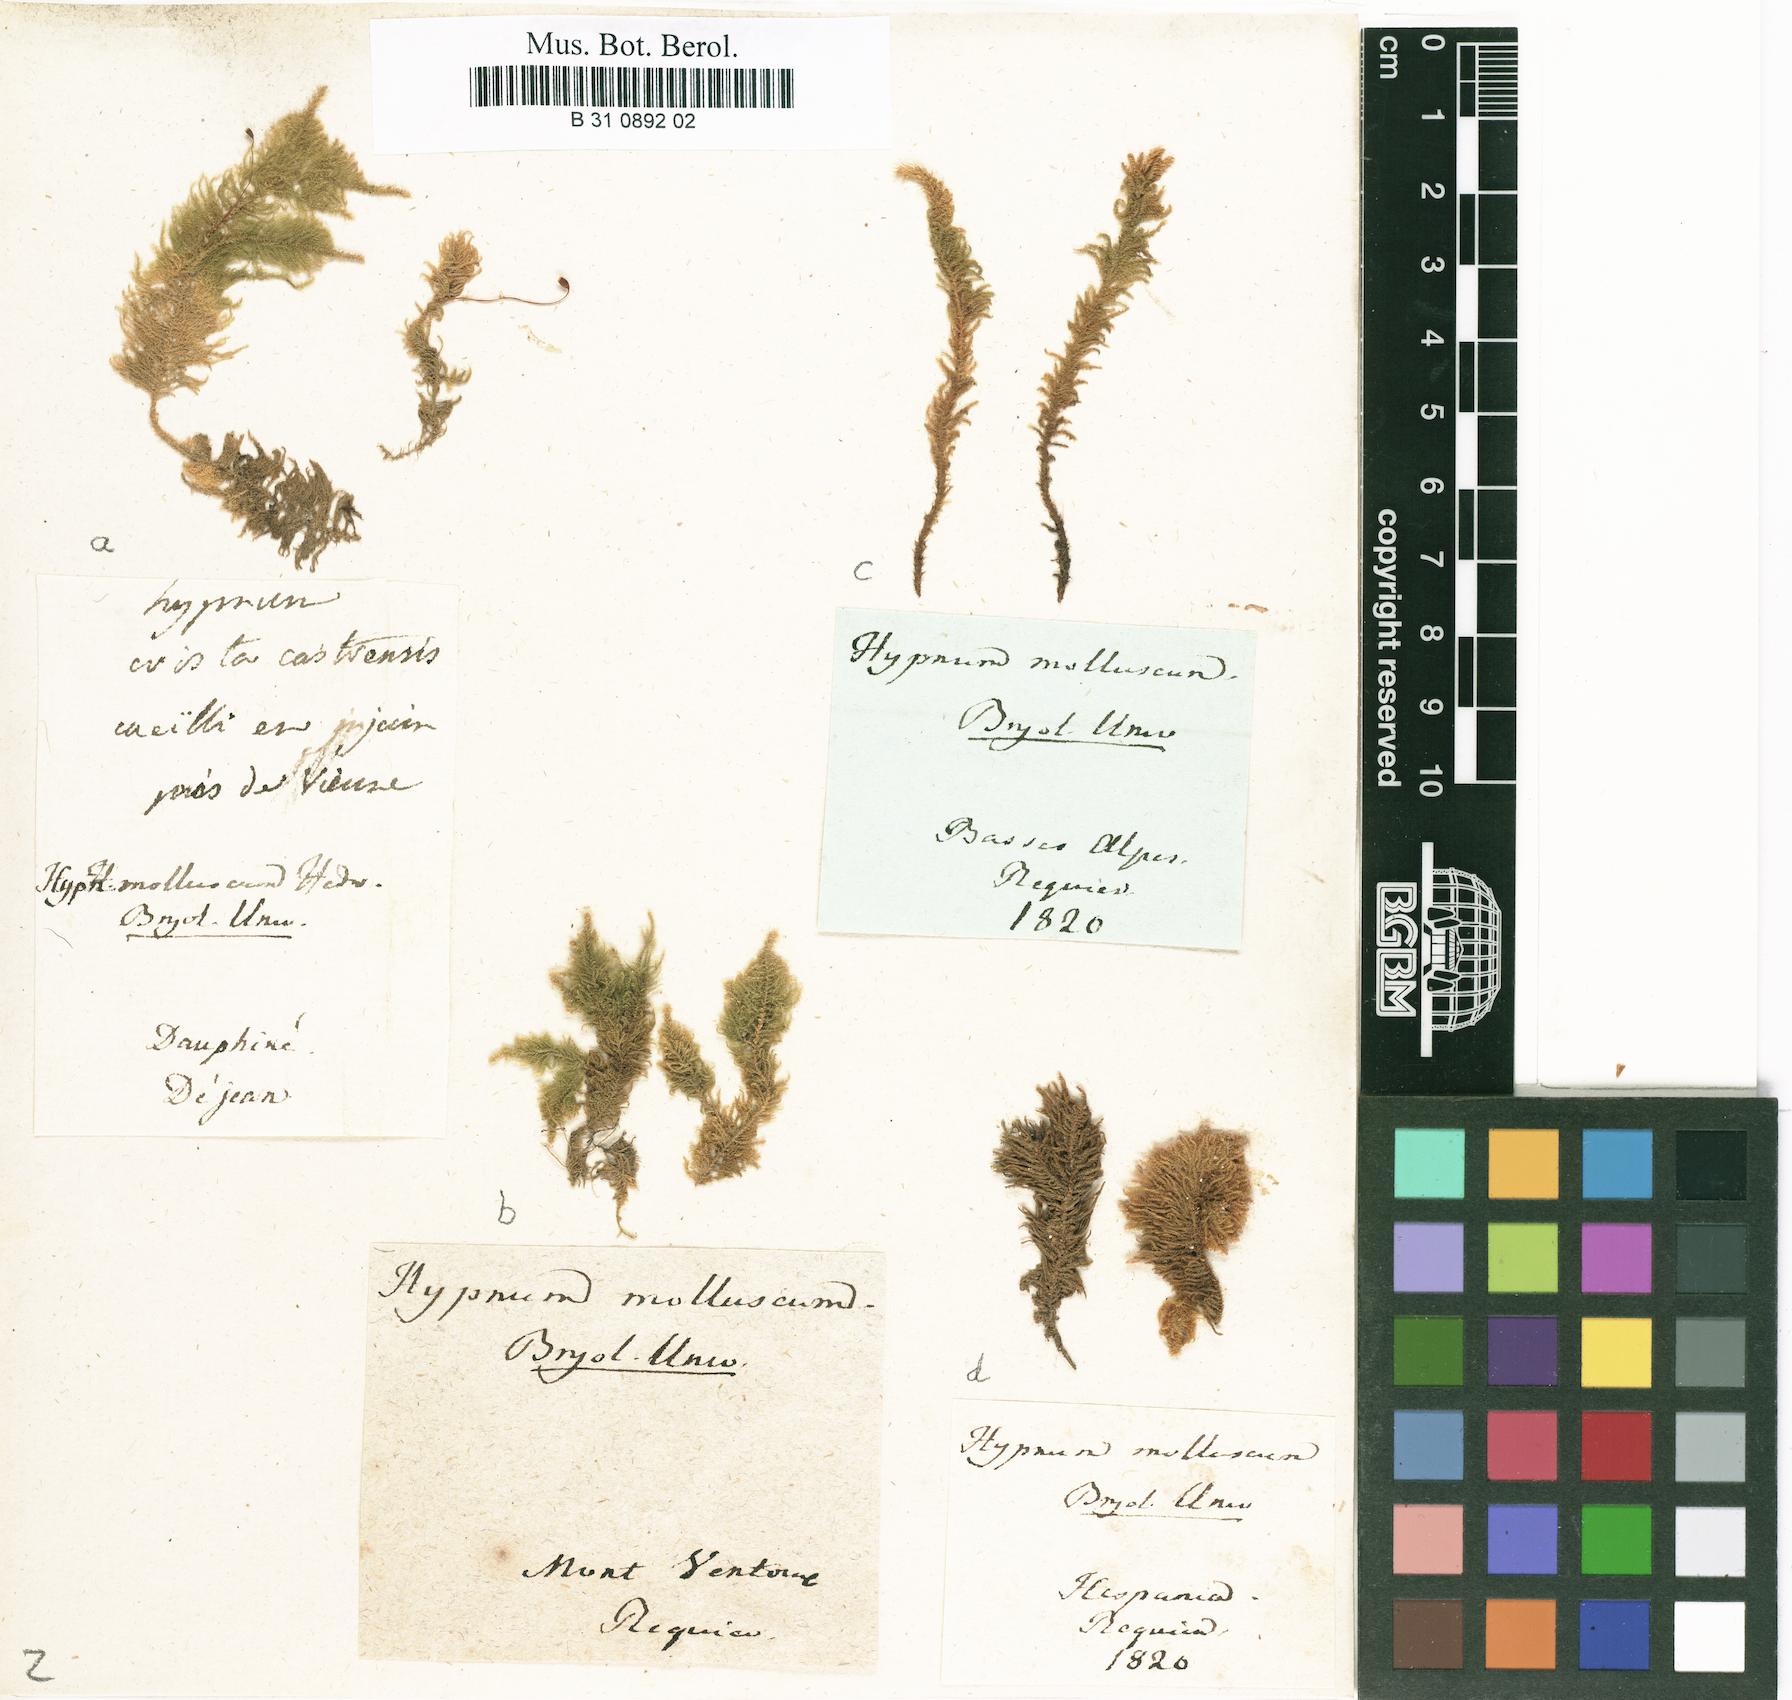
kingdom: Plantae
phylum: Bryophyta
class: Bryopsida
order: Hypnales
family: Myuriaceae
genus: Ctenidium
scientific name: Ctenidium molluscum
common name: Chalk comb-moss
